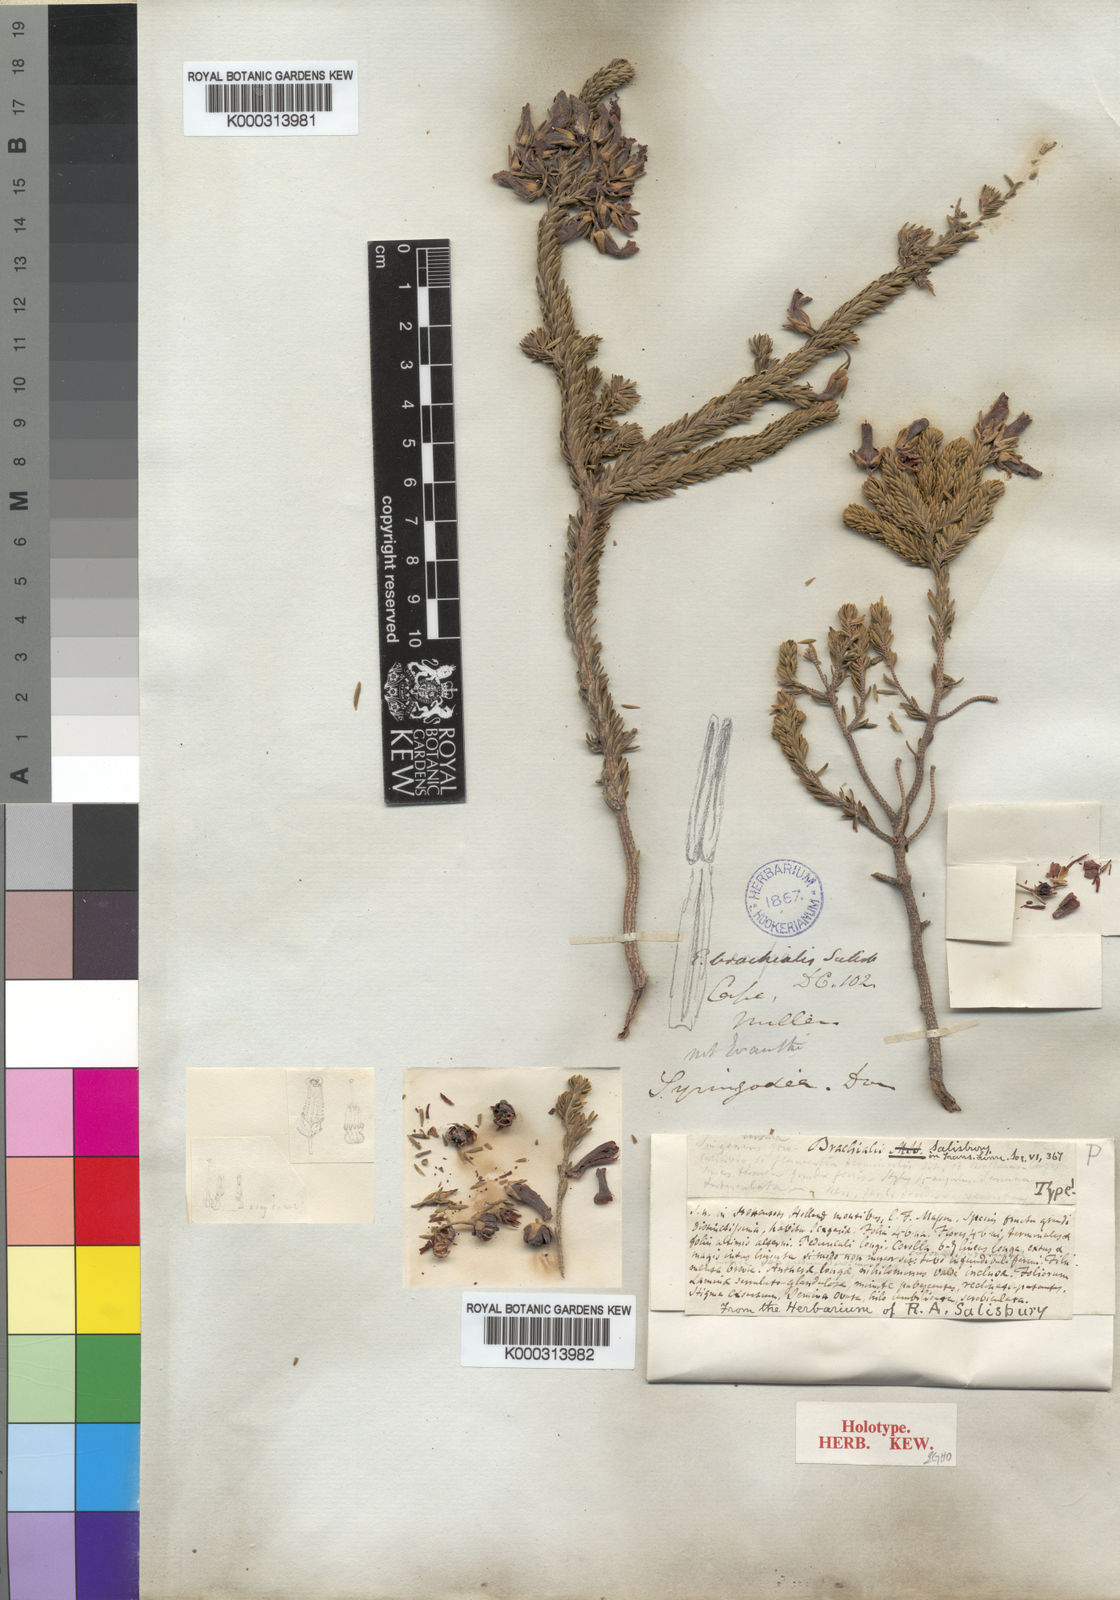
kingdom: Plantae
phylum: Tracheophyta
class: Magnoliopsida
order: Ericales
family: Ericaceae
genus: Erica
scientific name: Erica brachialis
